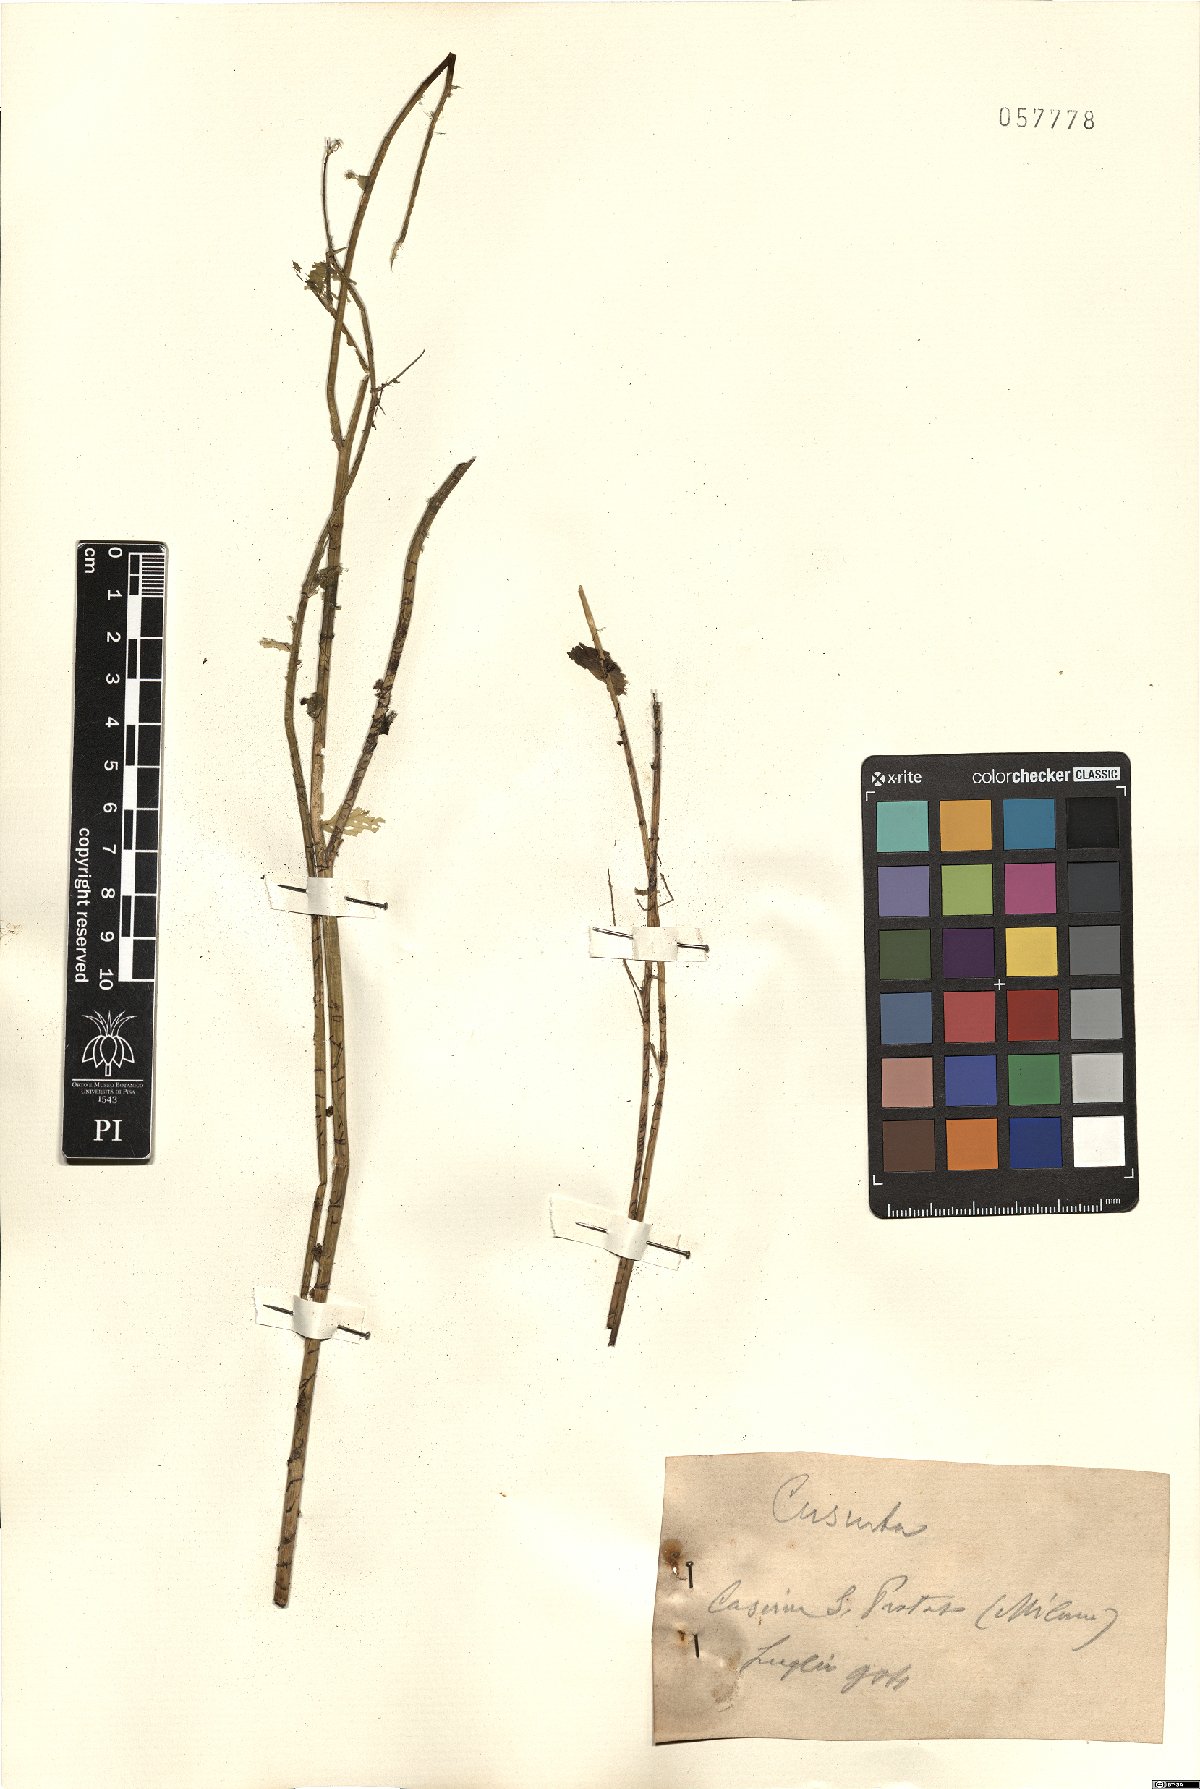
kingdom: Plantae
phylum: Tracheophyta
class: Magnoliopsida
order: Solanales
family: Convolvulaceae
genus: Cuscuta
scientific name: Cuscuta
